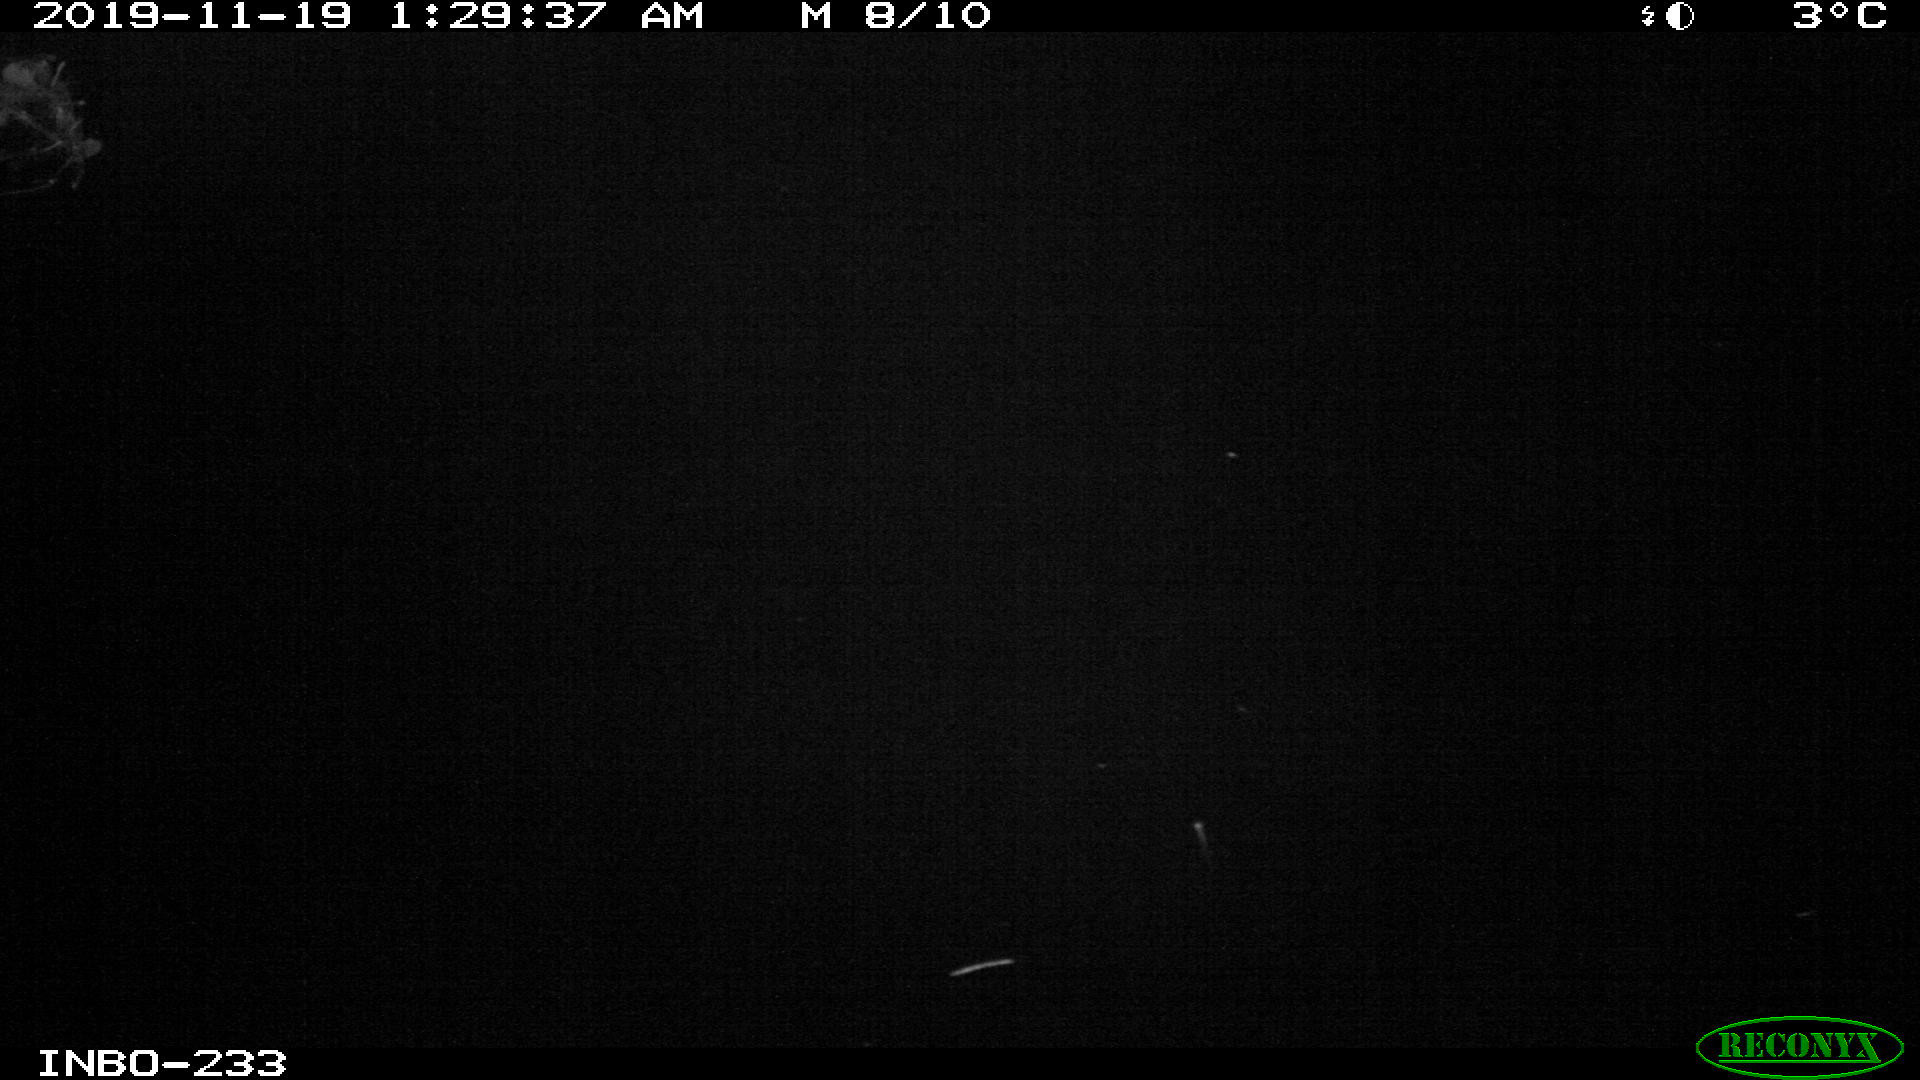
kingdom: Animalia
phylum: Chordata
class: Mammalia
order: Rodentia
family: Muridae
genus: Rattus
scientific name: Rattus norvegicus
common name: Brown rat
